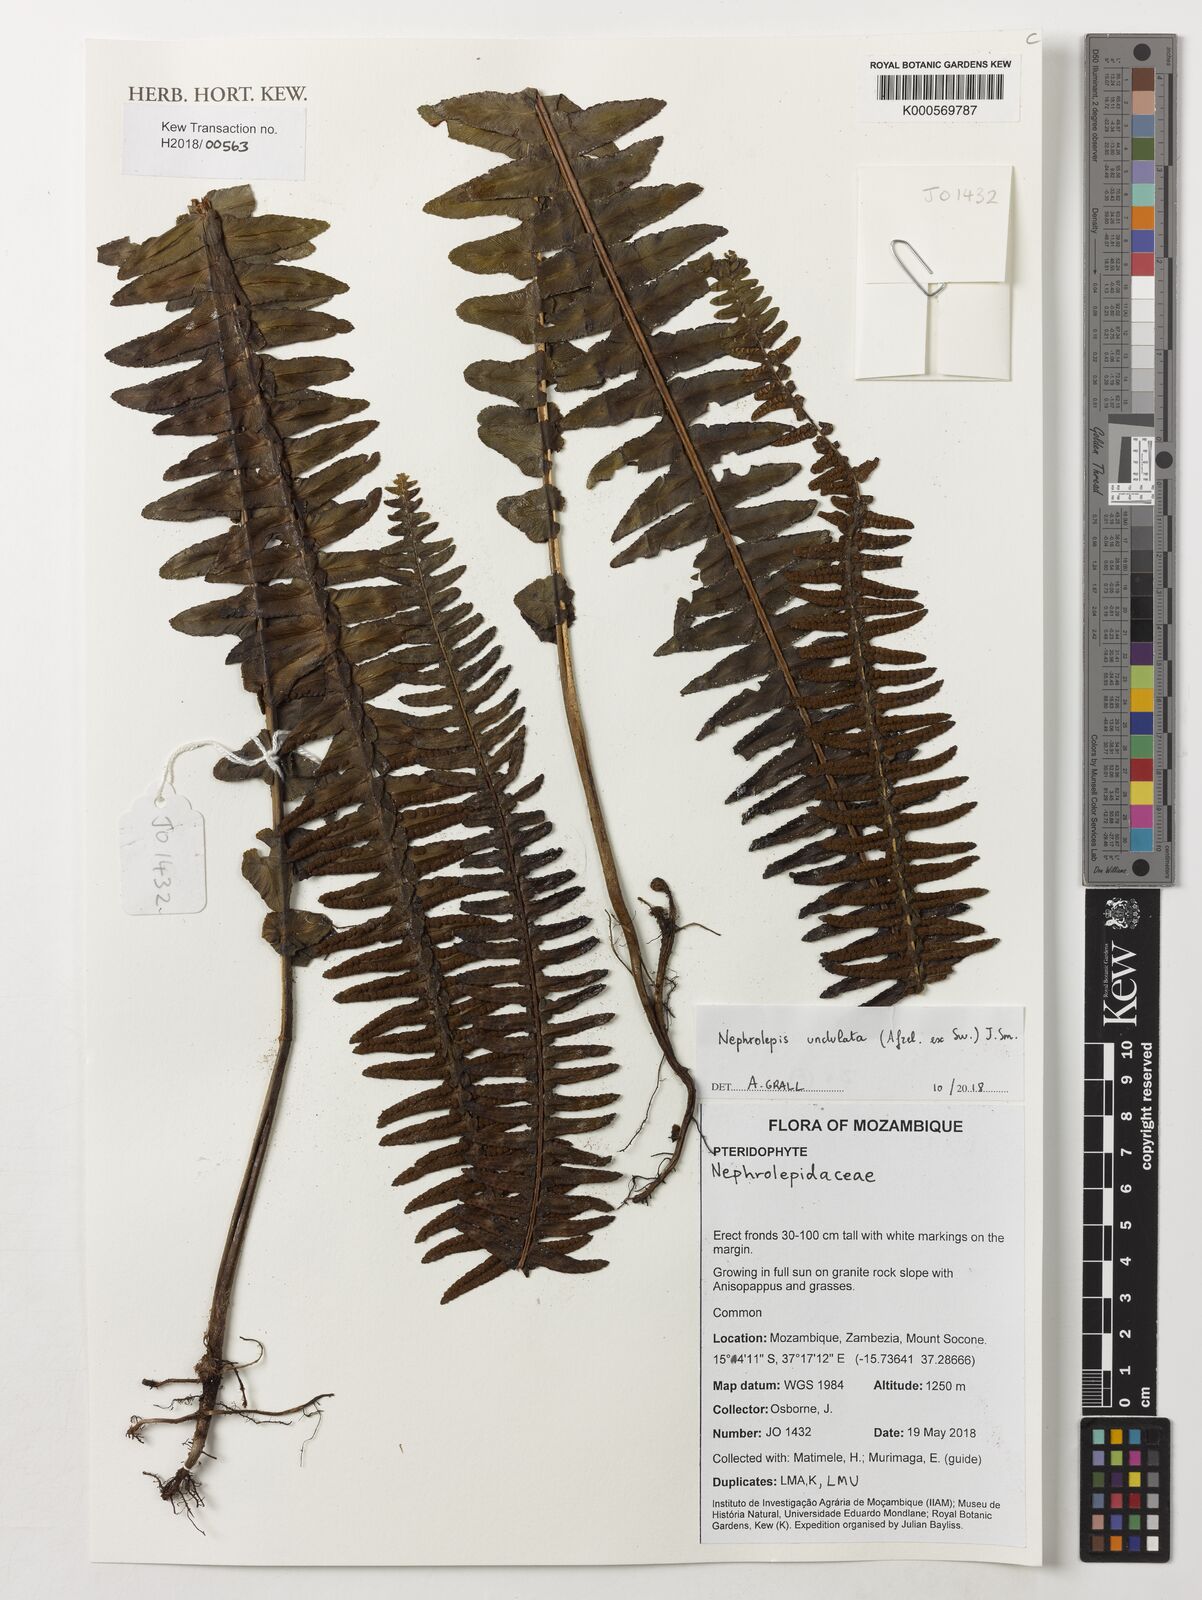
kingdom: Plantae
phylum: Tracheophyta
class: Polypodiopsida
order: Polypodiales
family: Nephrolepidaceae
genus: Nephrolepis
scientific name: Nephrolepis undulata
